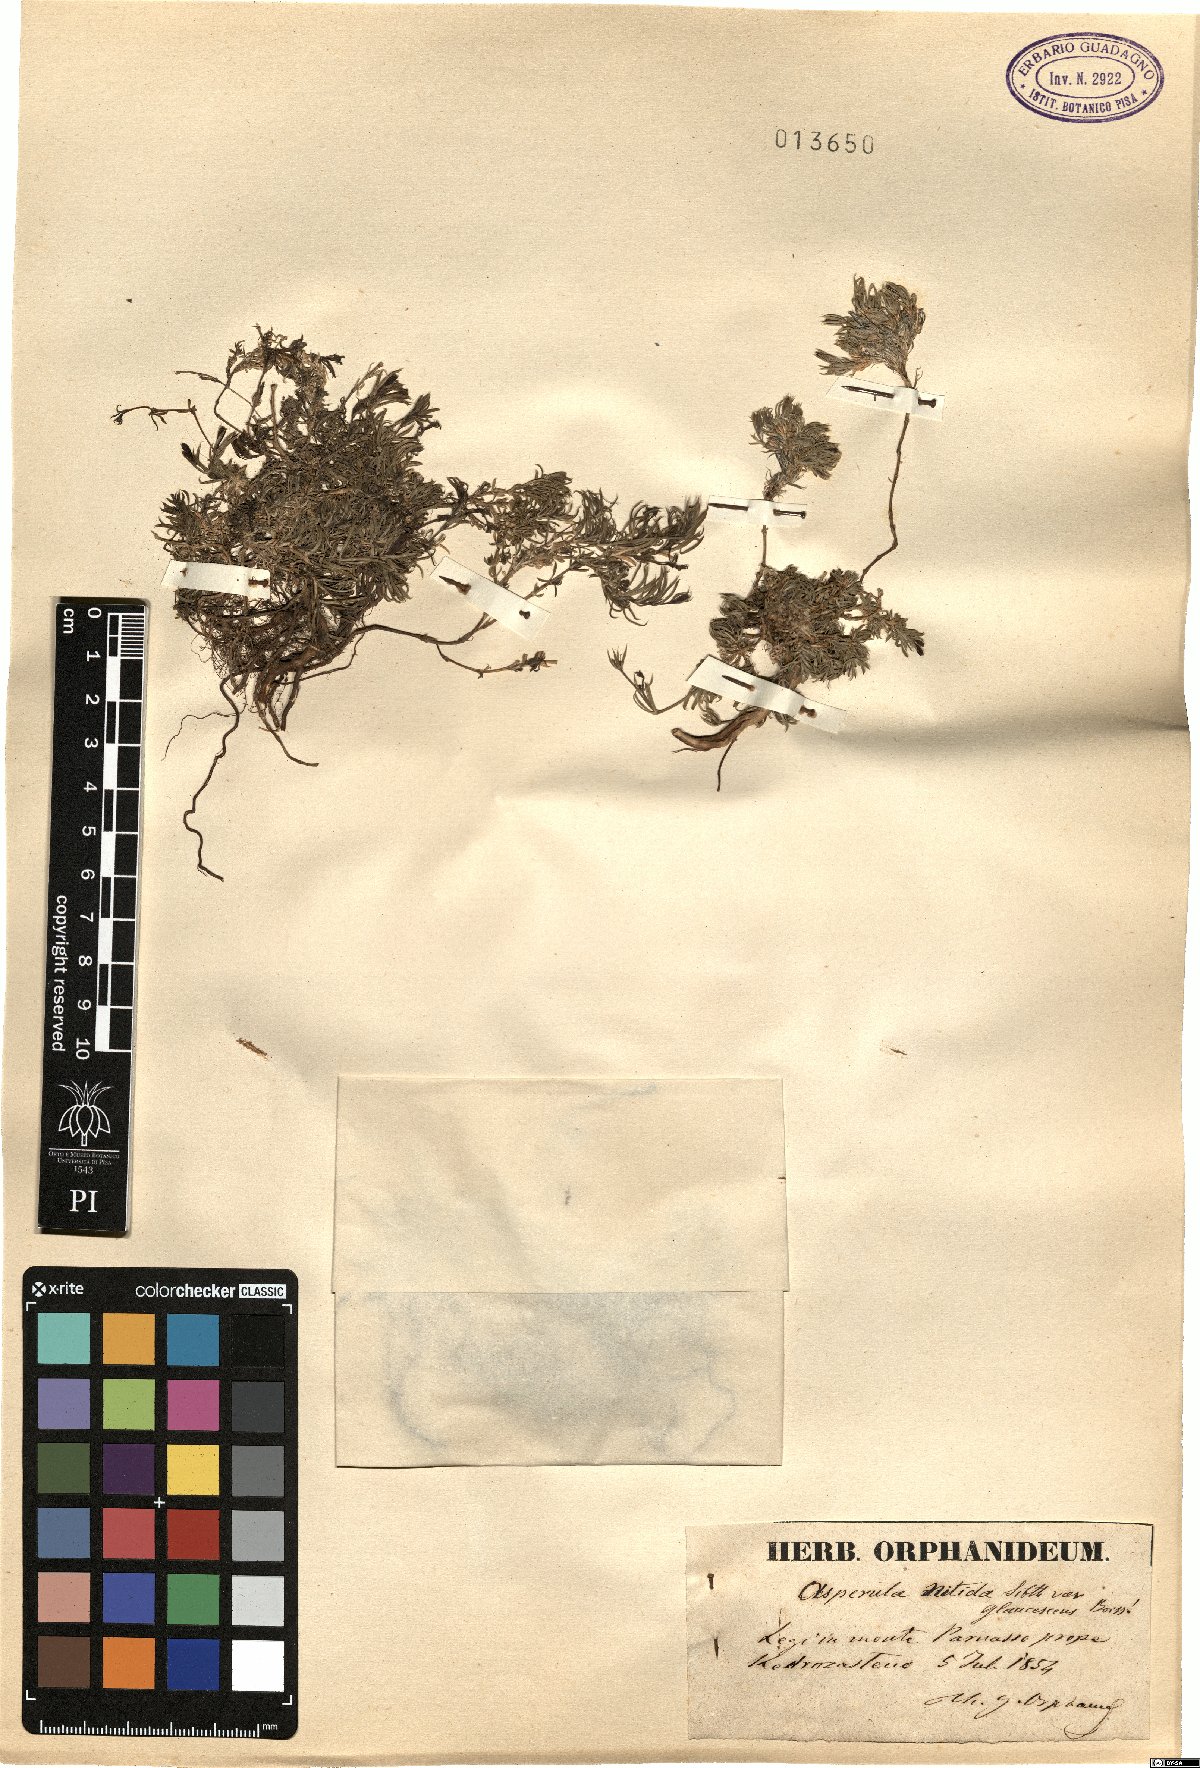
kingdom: Plantae
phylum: Tracheophyta
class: Magnoliopsida
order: Gentianales
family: Rubiaceae
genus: Cynanchica
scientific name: Cynanchica nitida
